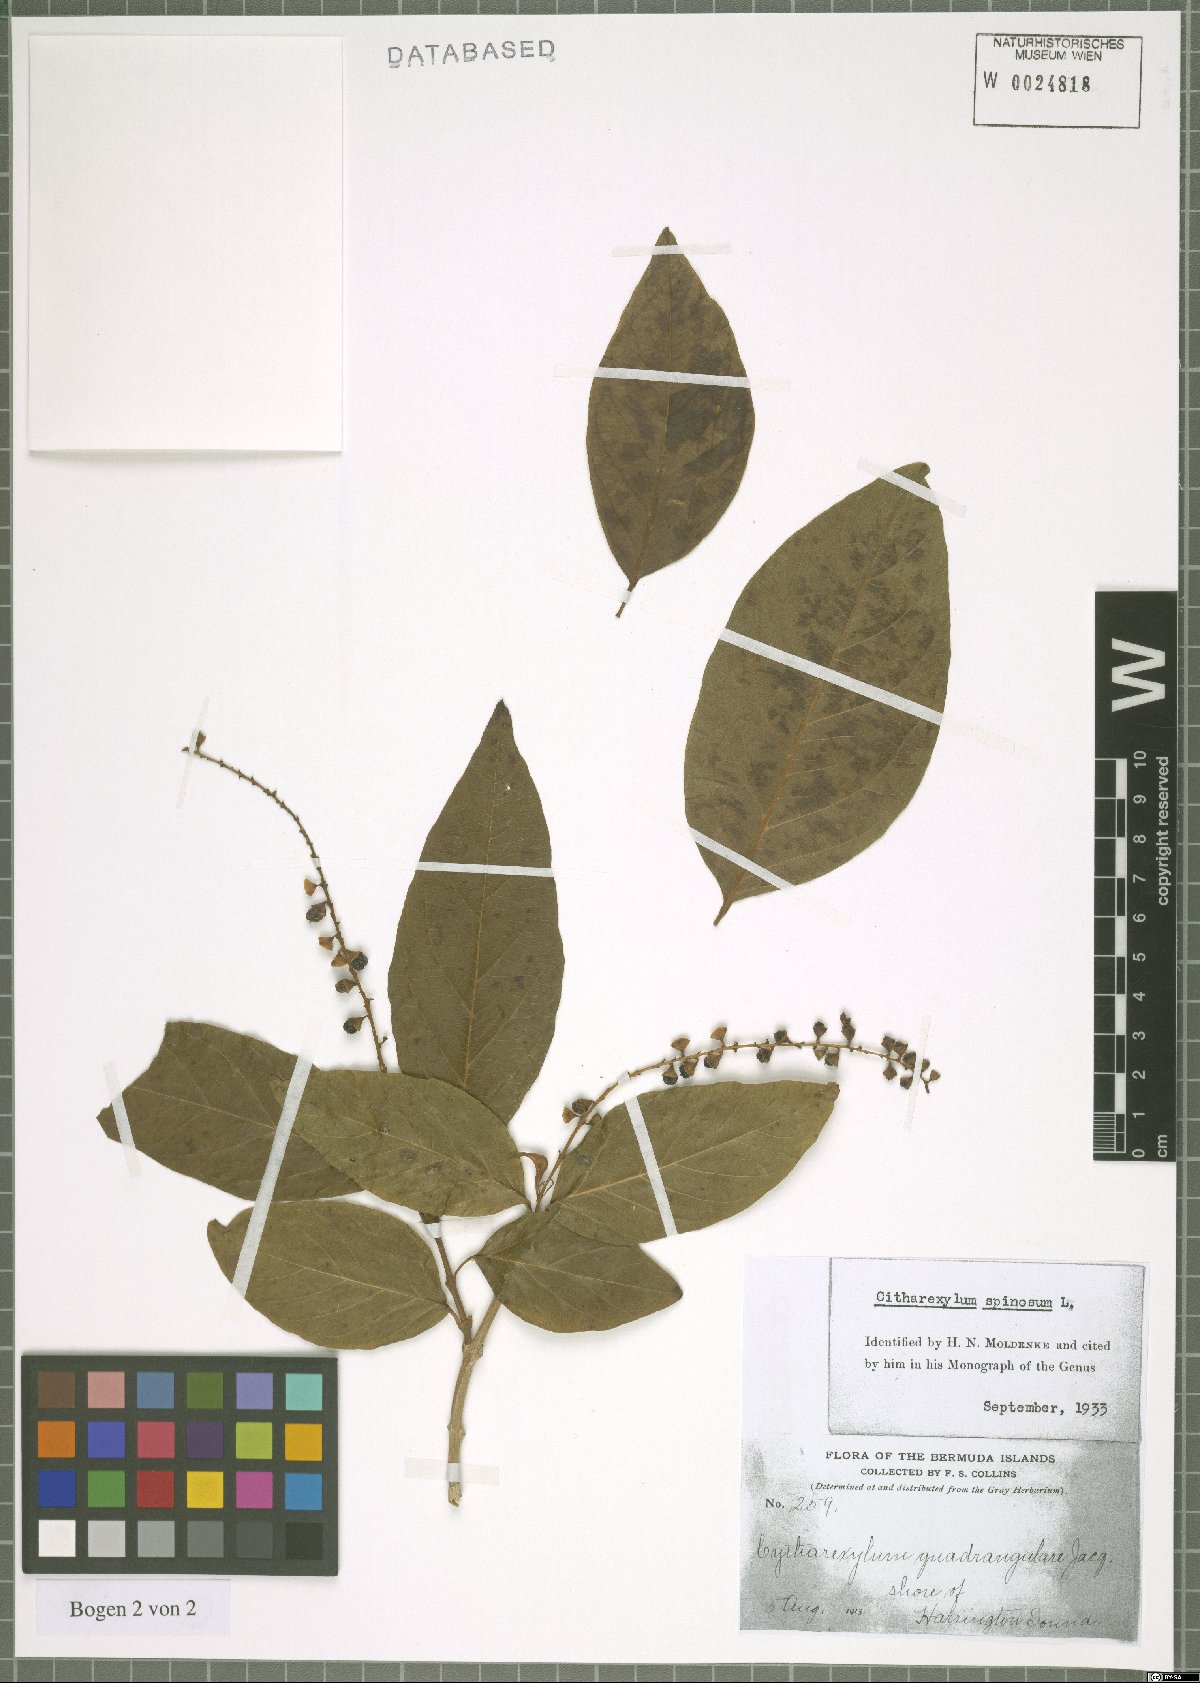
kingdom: Plantae
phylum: Tracheophyta
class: Magnoliopsida
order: Lamiales
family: Verbenaceae
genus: Citharexylum
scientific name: Citharexylum spinosum
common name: Fiddlewood
